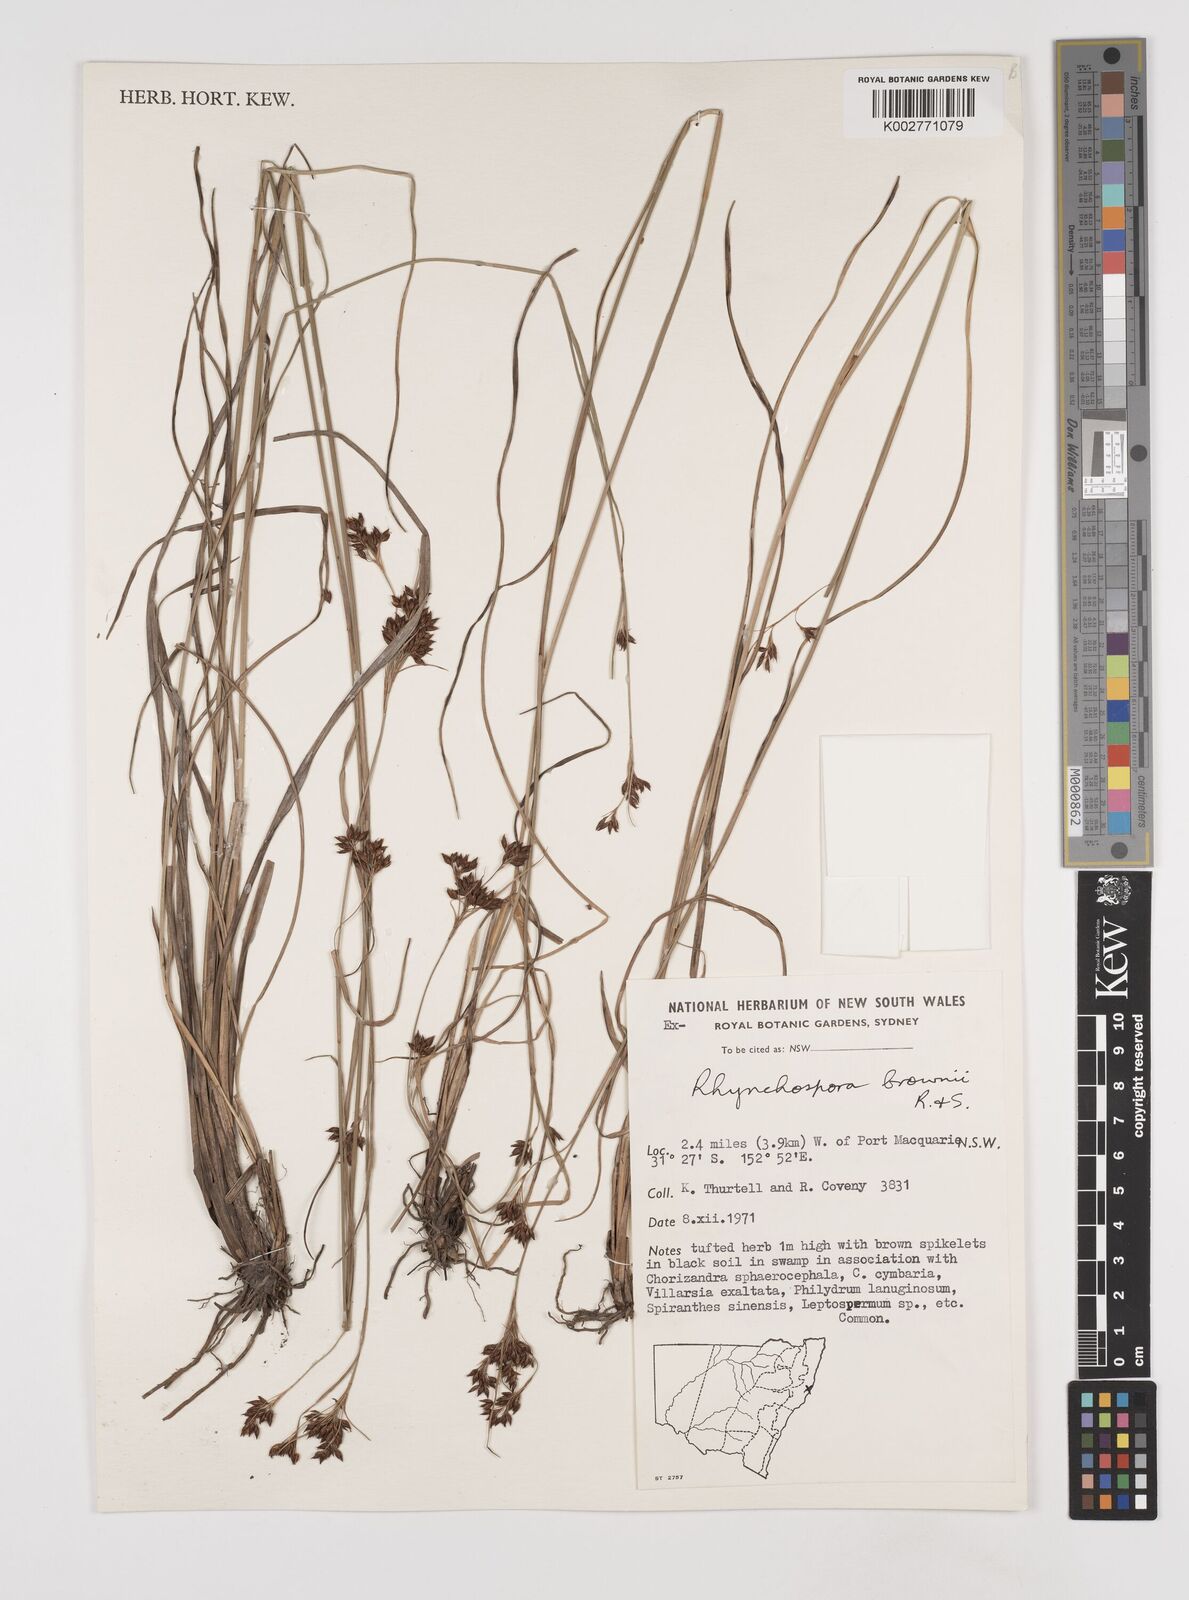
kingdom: Plantae
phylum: Tracheophyta
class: Liliopsida
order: Poales
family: Cyperaceae
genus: Rhynchospora
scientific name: Rhynchospora rugosa
